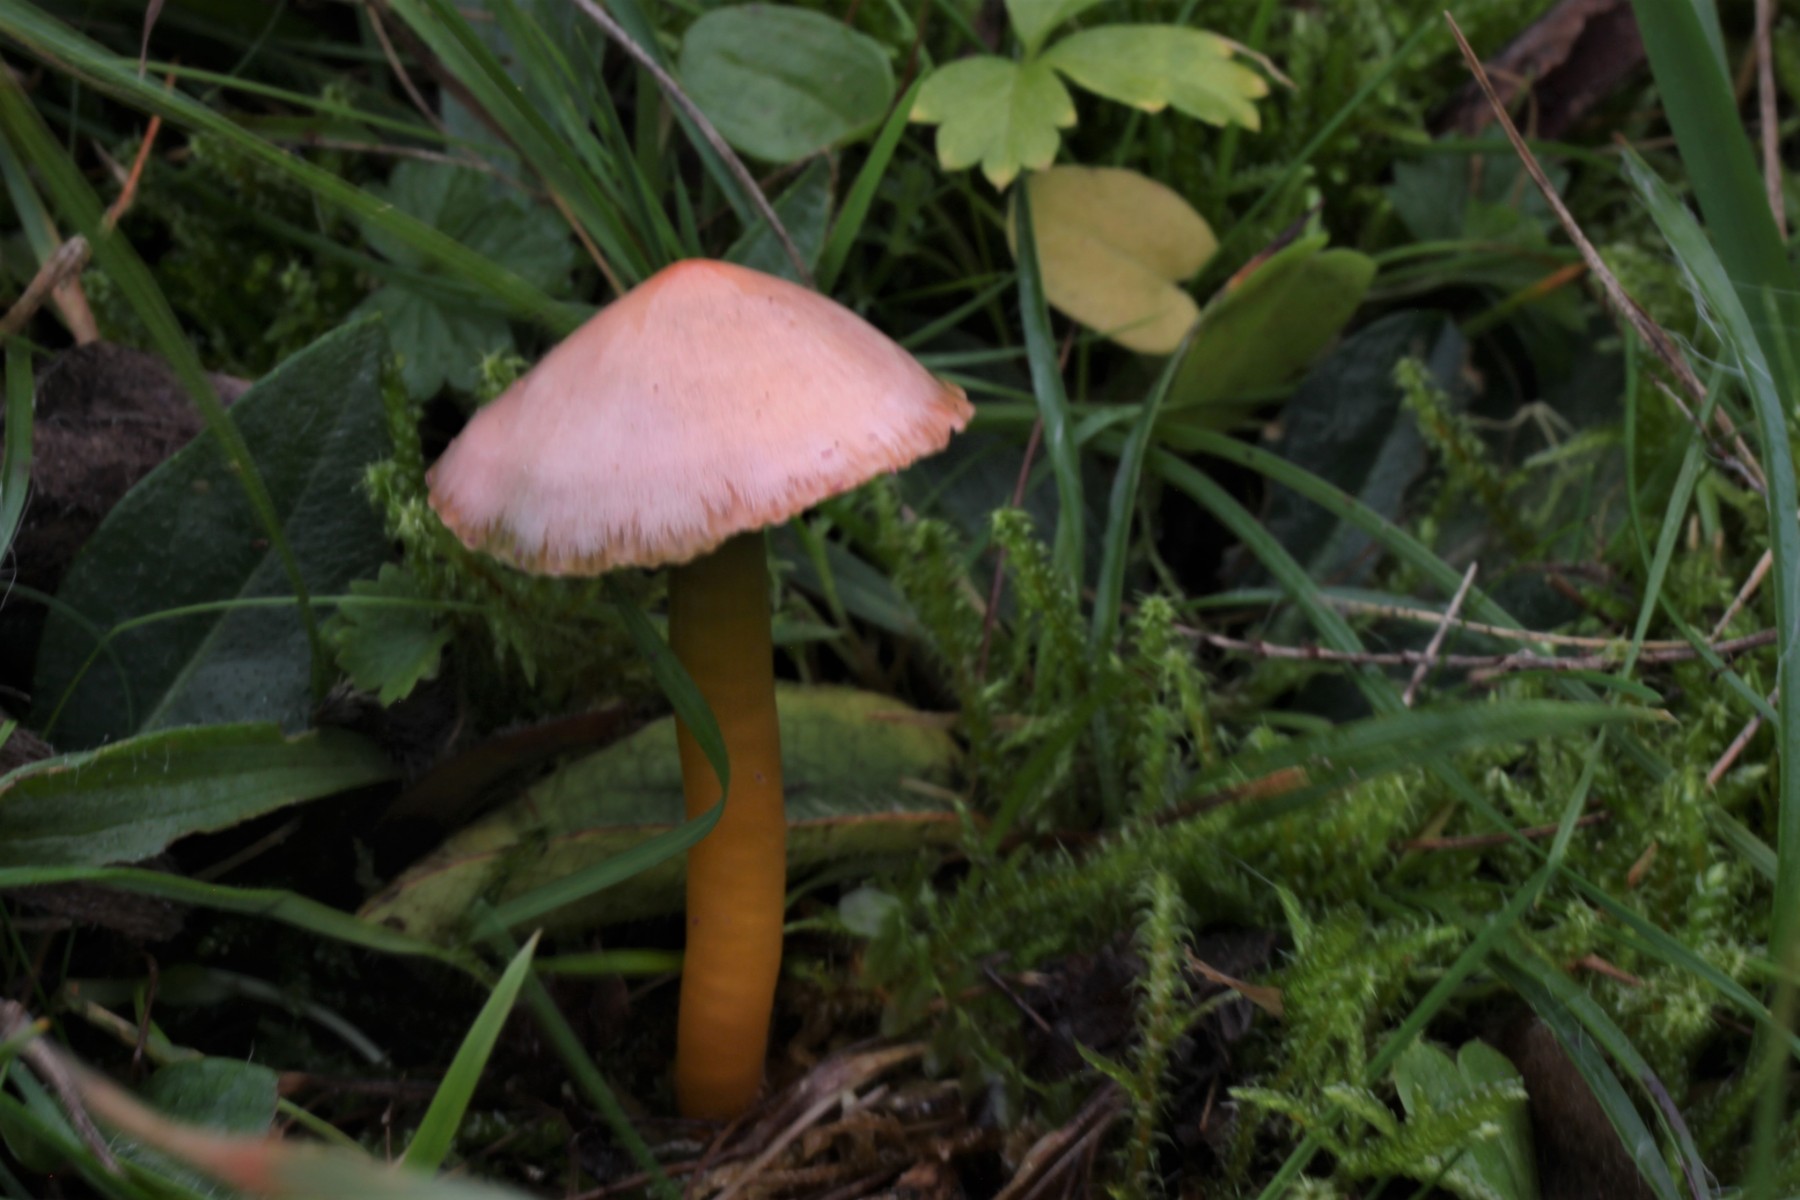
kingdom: Fungi
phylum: Basidiomycota
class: Agaricomycetes
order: Agaricales
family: Hygrophoraceae
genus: Gliophorus
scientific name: Gliophorus psittacinus
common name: papegøje-vokshat
